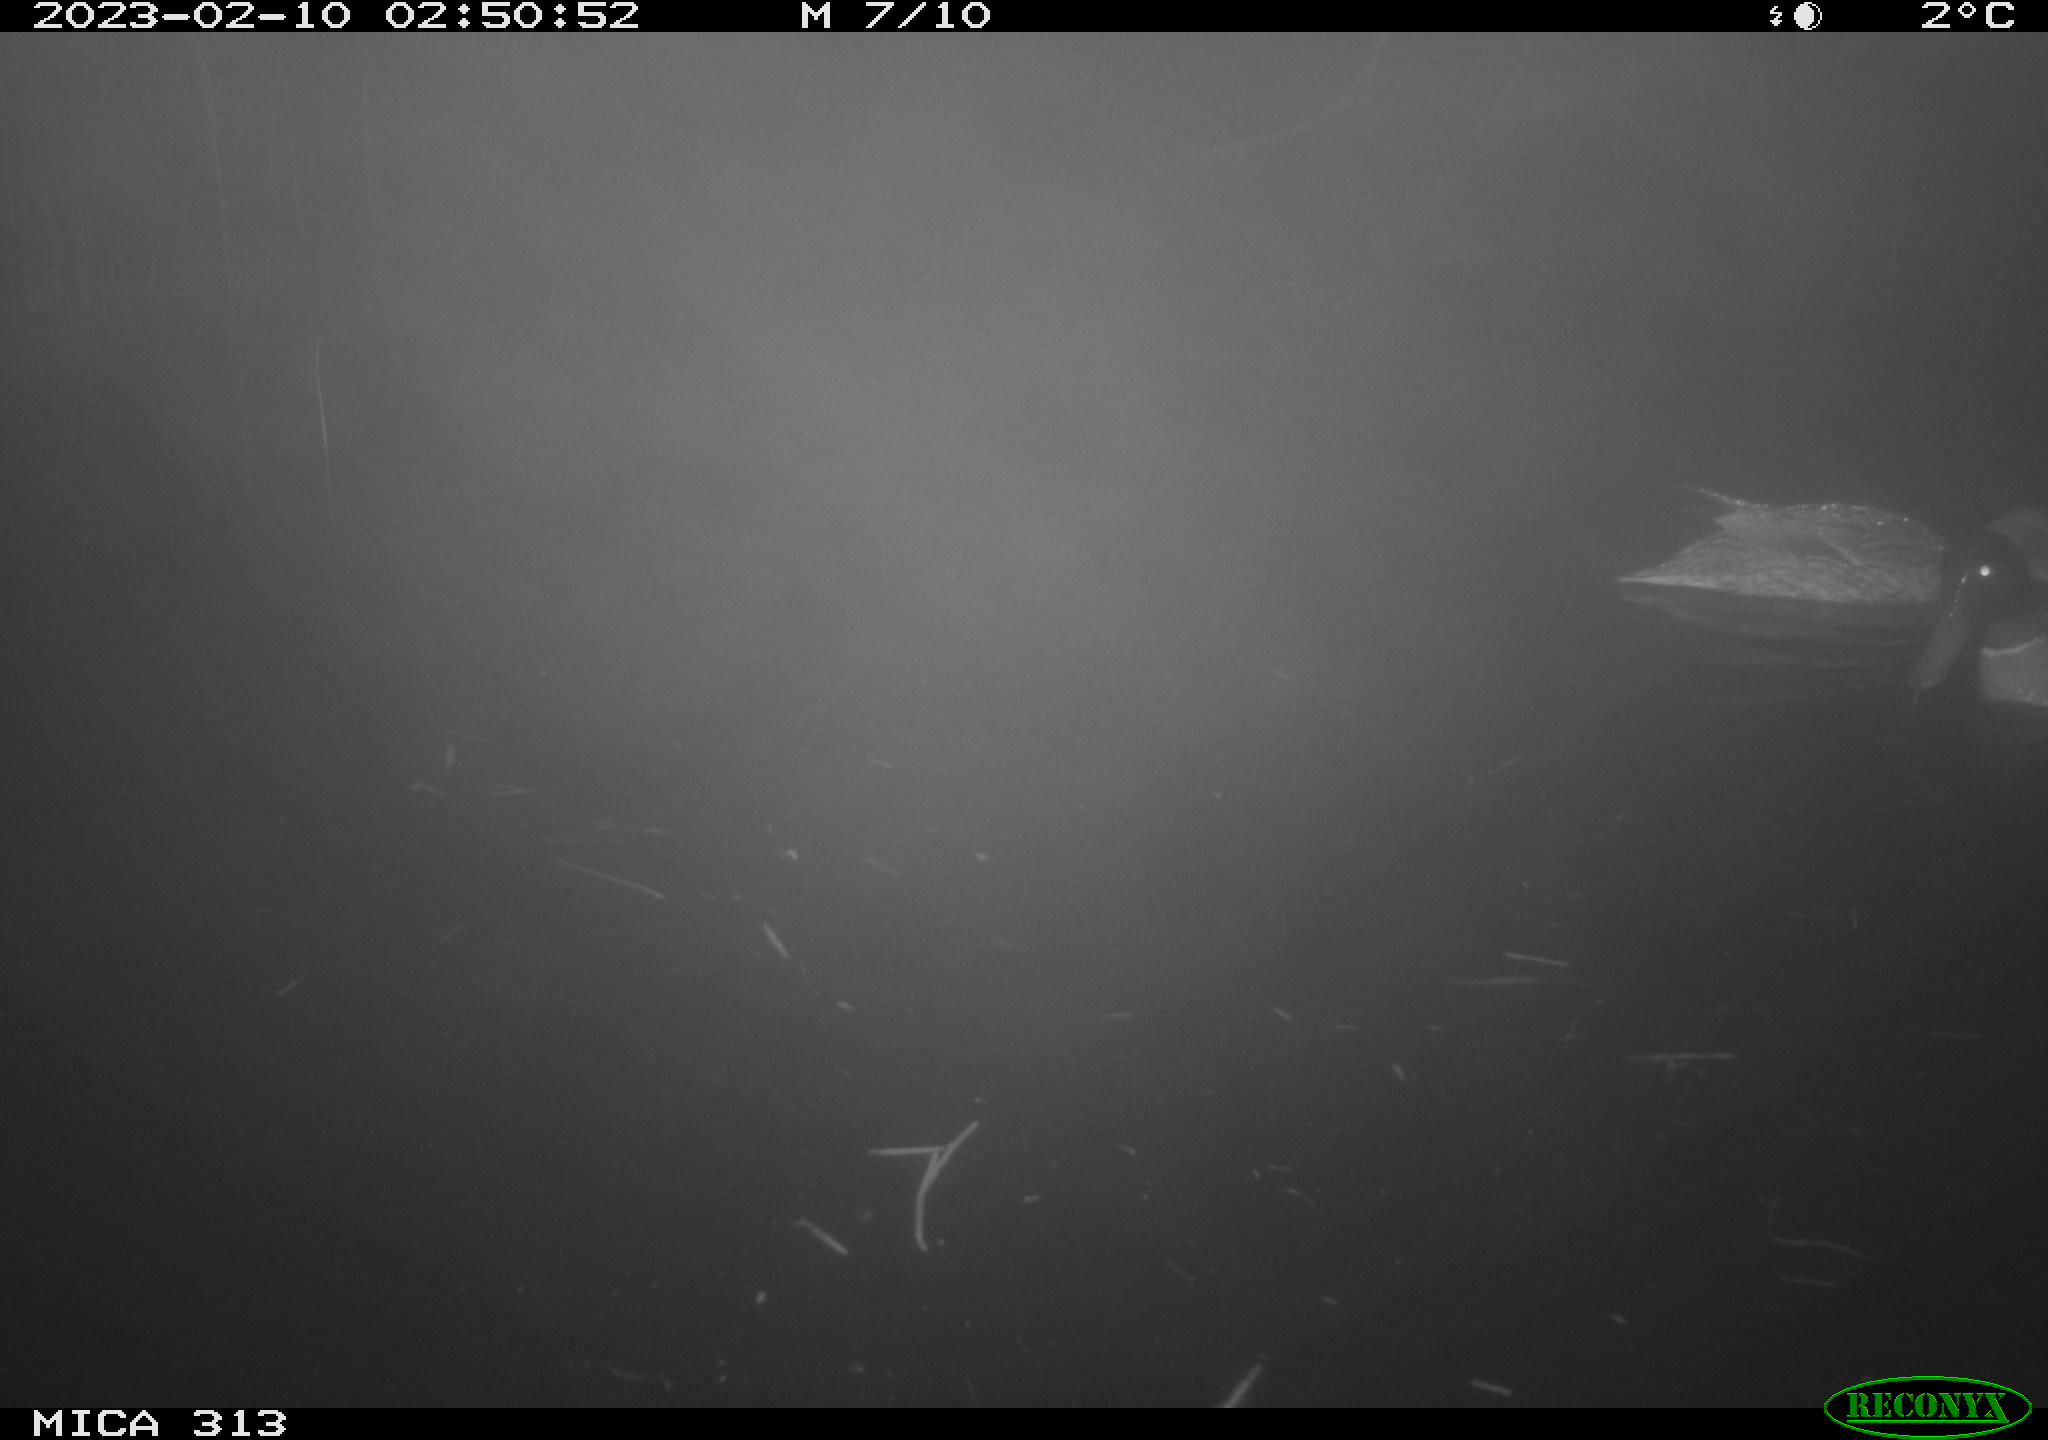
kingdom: Animalia
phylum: Chordata
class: Aves
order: Anseriformes
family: Anatidae
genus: Anas
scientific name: Anas
